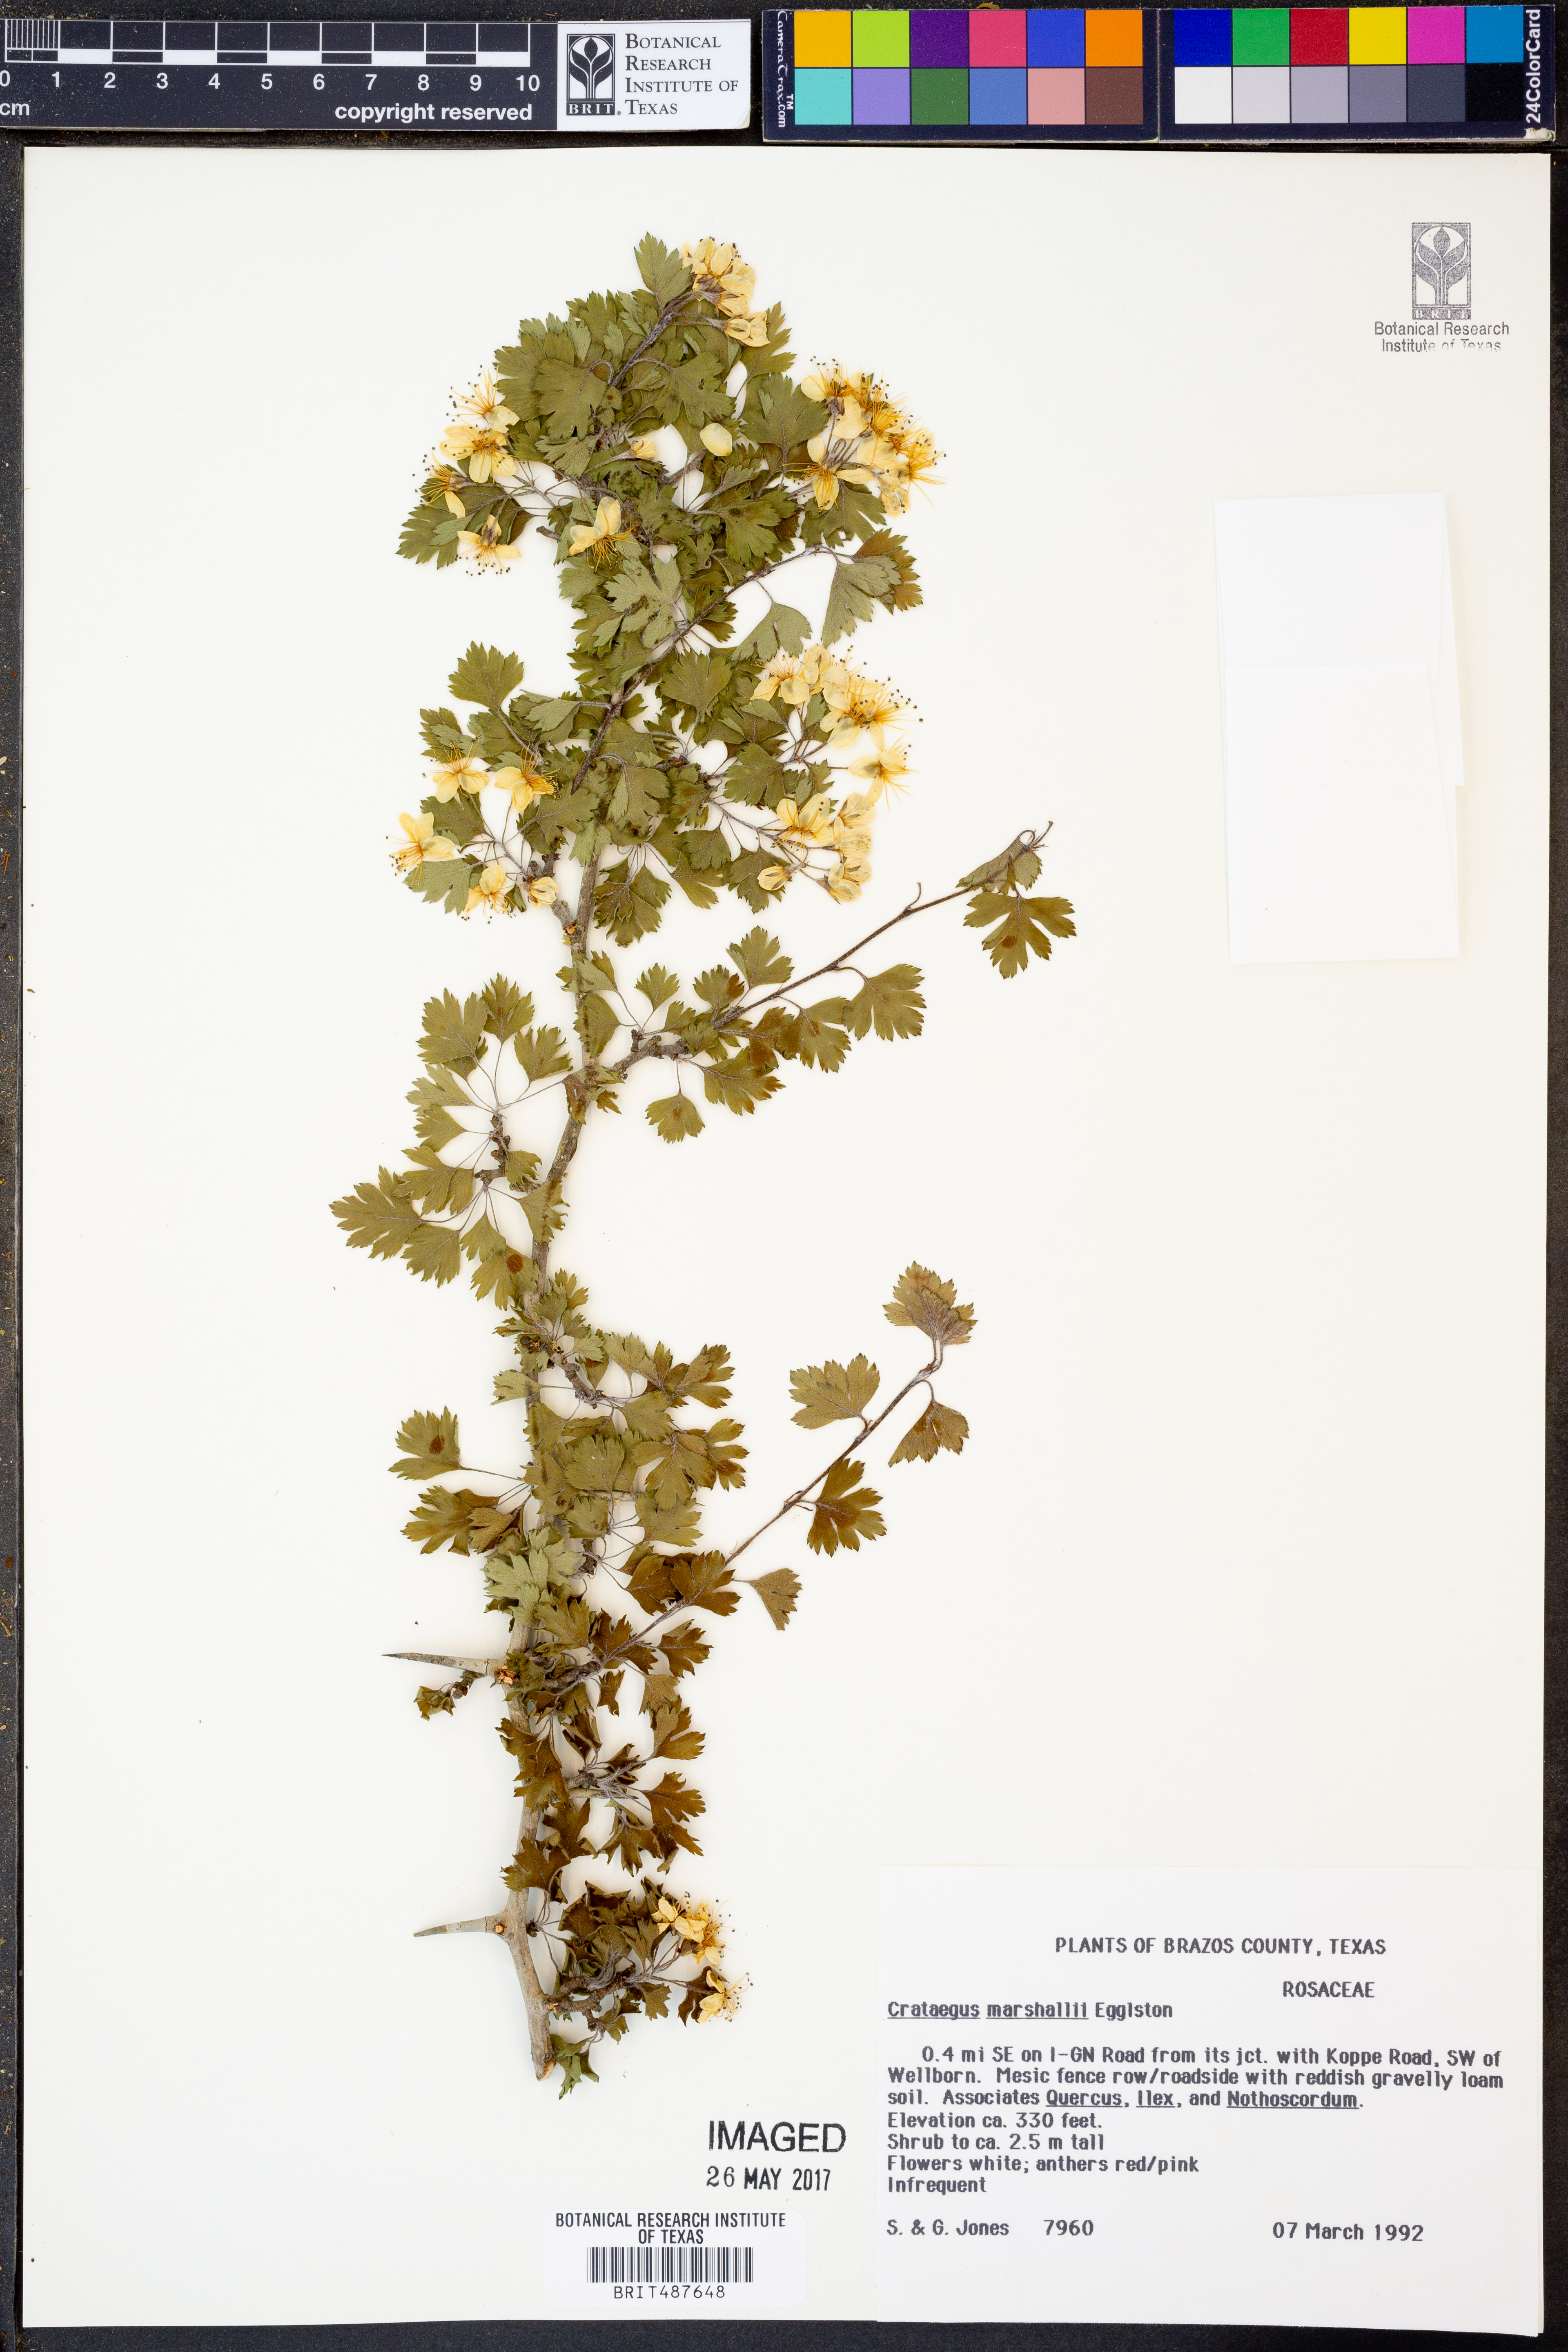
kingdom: Plantae
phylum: Tracheophyta
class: Magnoliopsida
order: Rosales
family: Rosaceae
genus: Crataegus
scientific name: Crataegus marshallii
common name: Parsley-hawthorn
